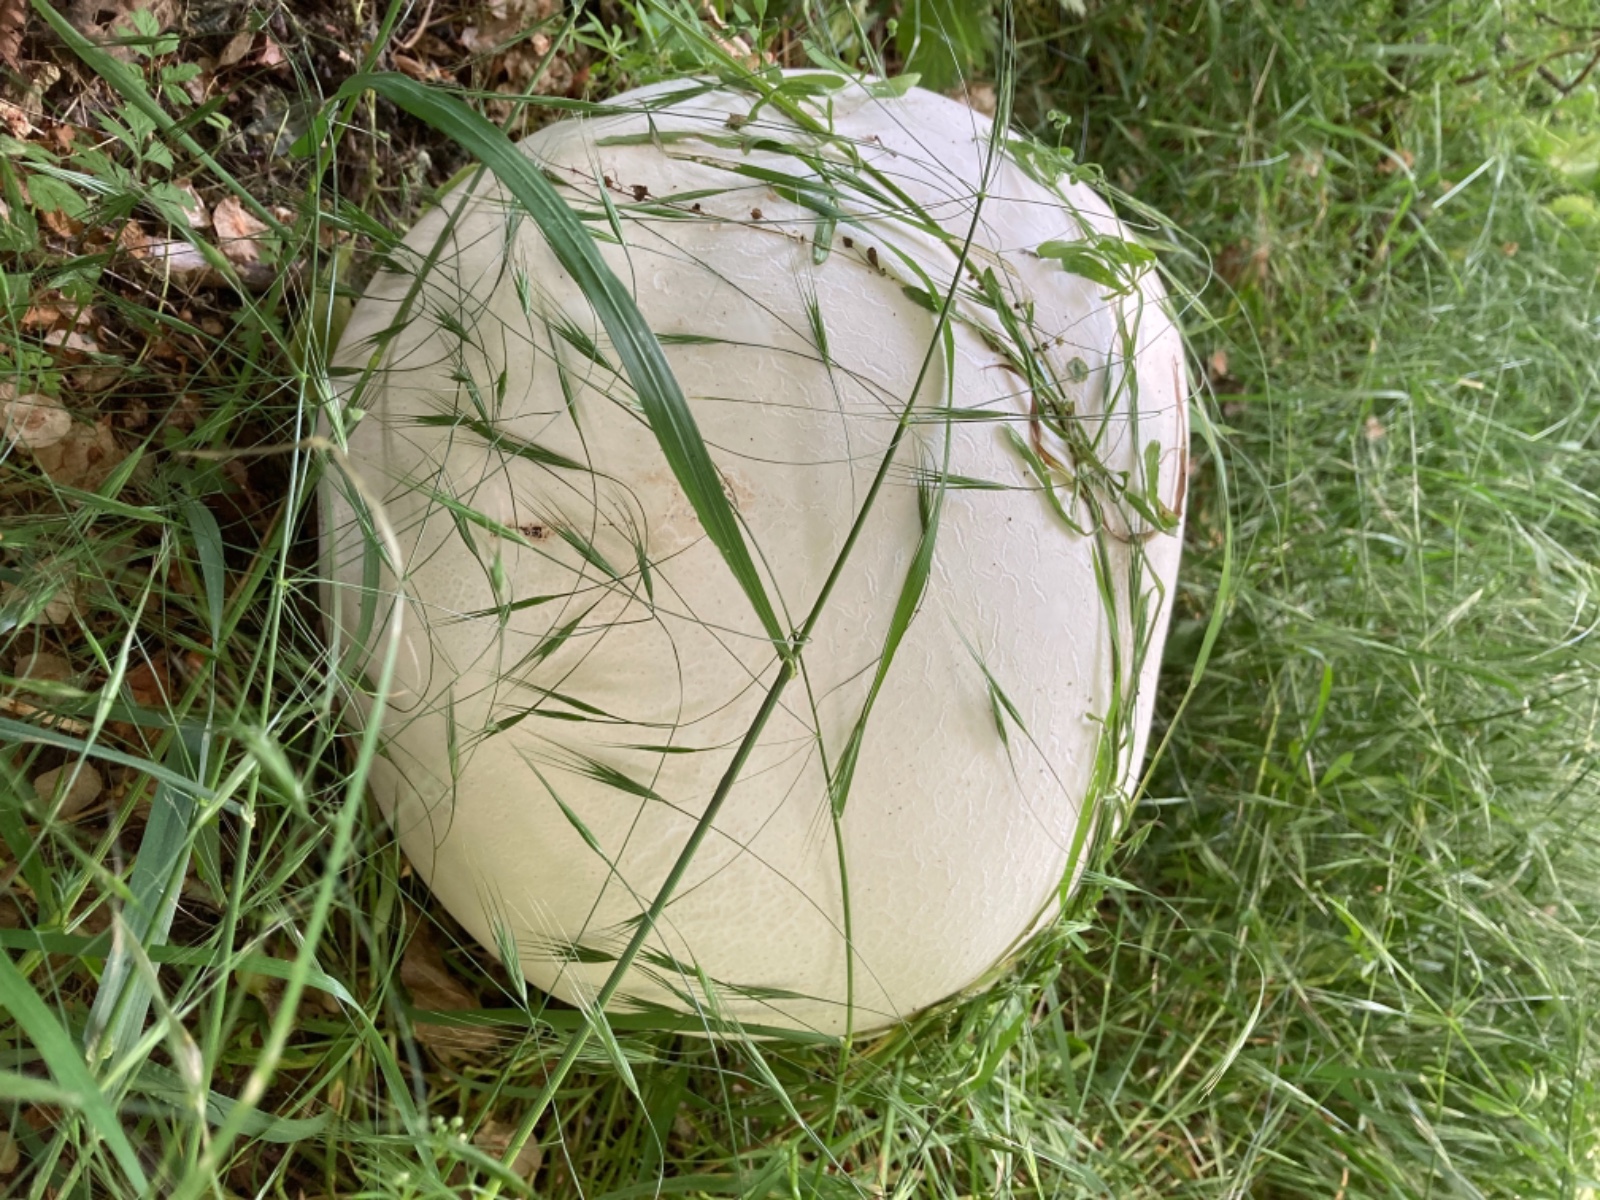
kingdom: Fungi
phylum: Basidiomycota
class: Agaricomycetes
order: Agaricales
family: Lycoperdaceae
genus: Calvatia
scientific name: Calvatia gigantea
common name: kæmpestøvbold
